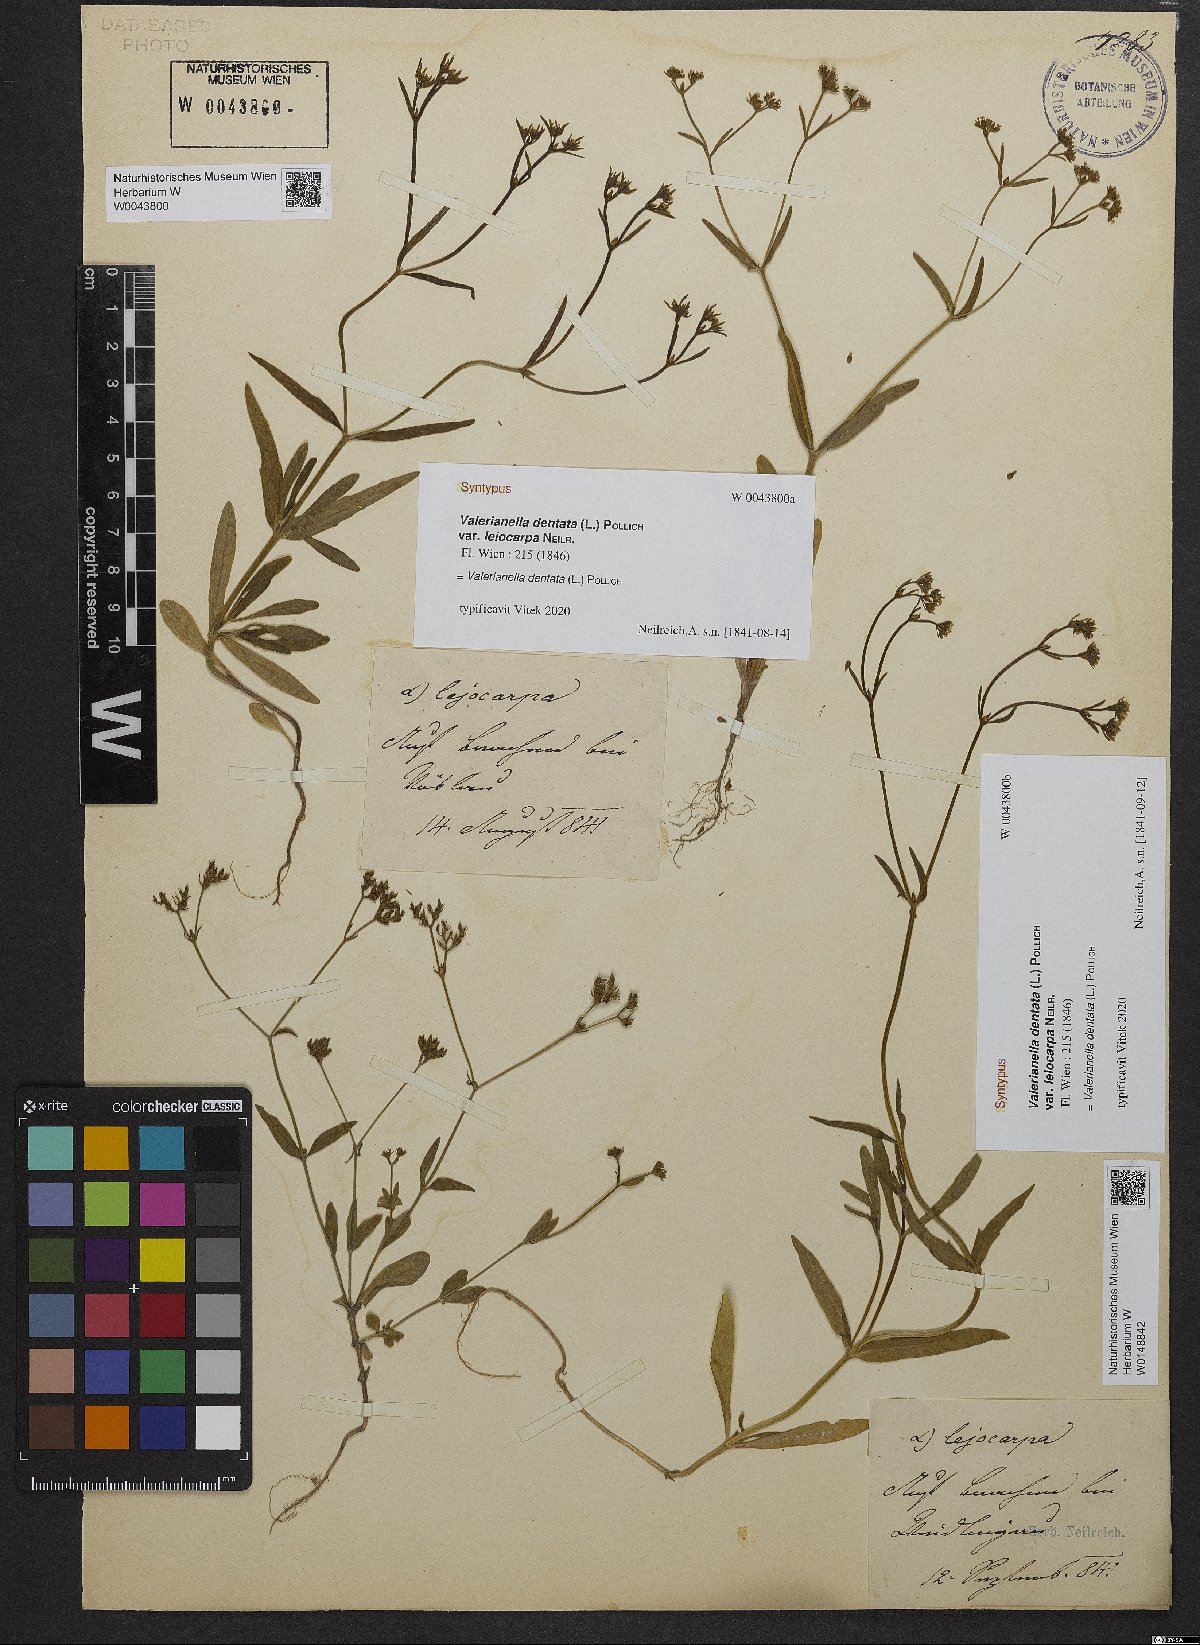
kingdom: Plantae
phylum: Tracheophyta
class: Magnoliopsida
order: Dipsacales
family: Caprifoliaceae
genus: Valerianella
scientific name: Valerianella dentata
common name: Narrow-fruited cornsalad
